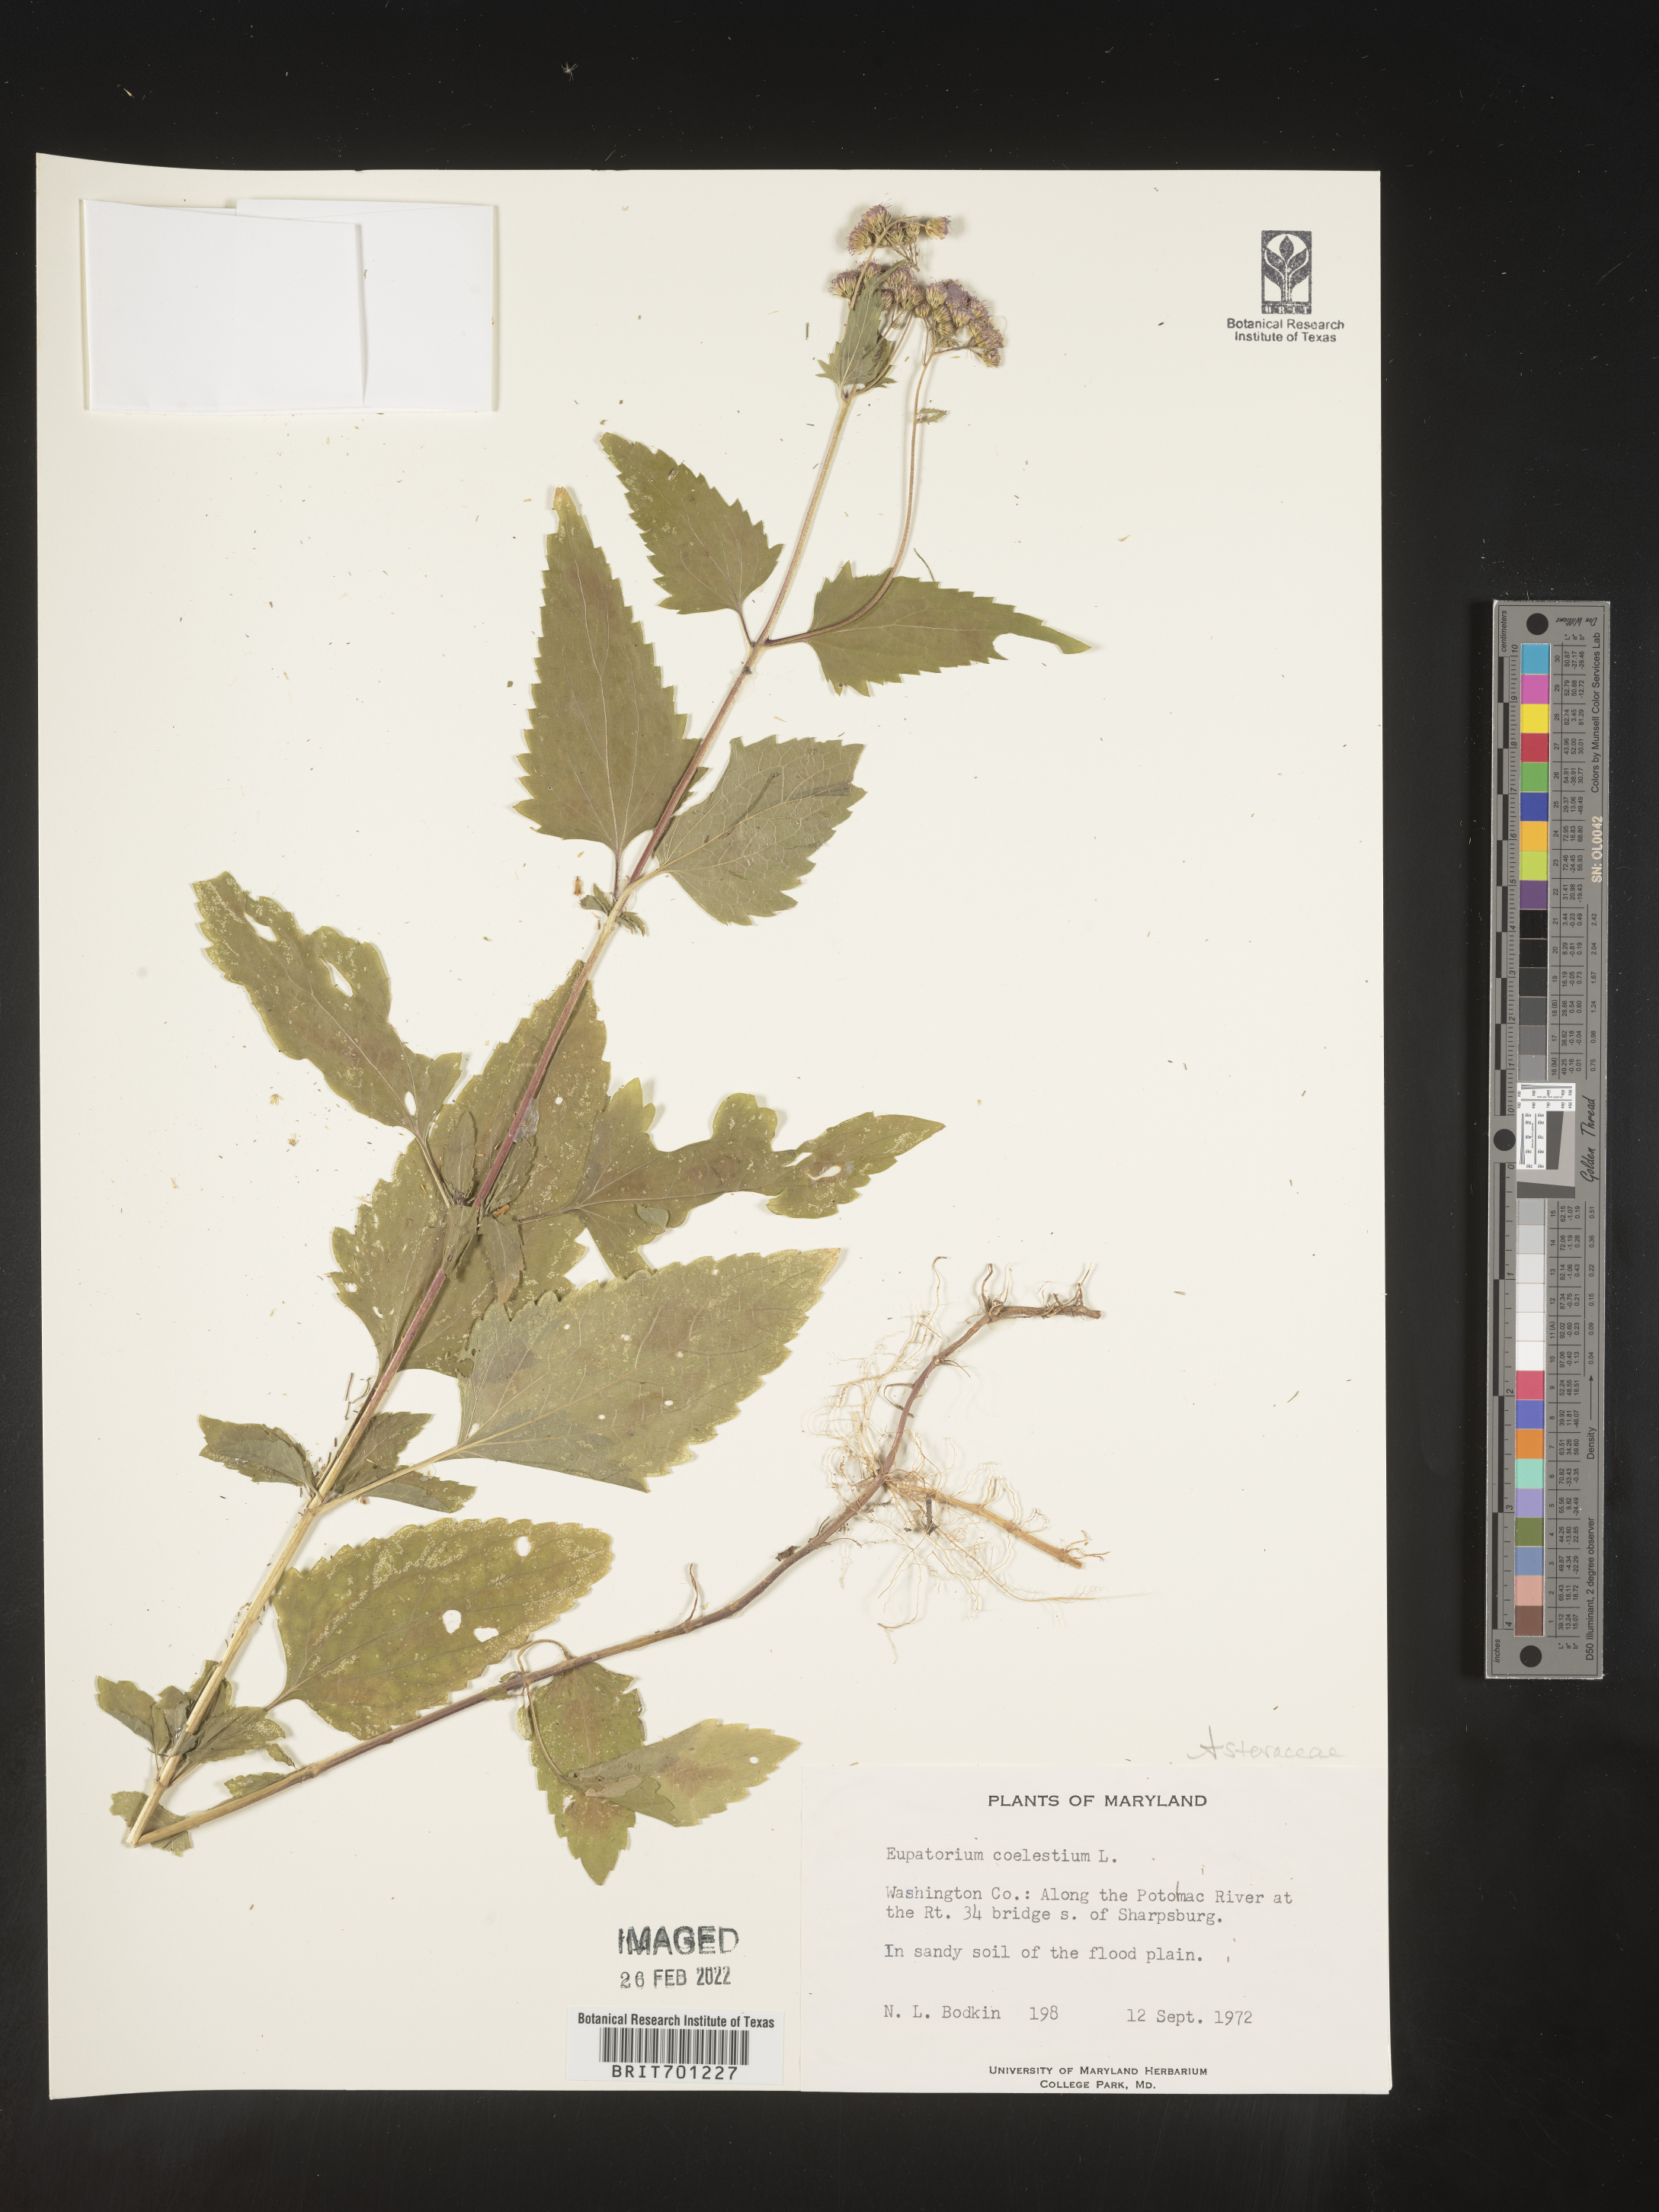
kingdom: Plantae
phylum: Tracheophyta
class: Magnoliopsida
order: Asterales
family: Asteraceae
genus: Eupatorium
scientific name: Eupatorium capillifolium
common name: Dog-fennel
